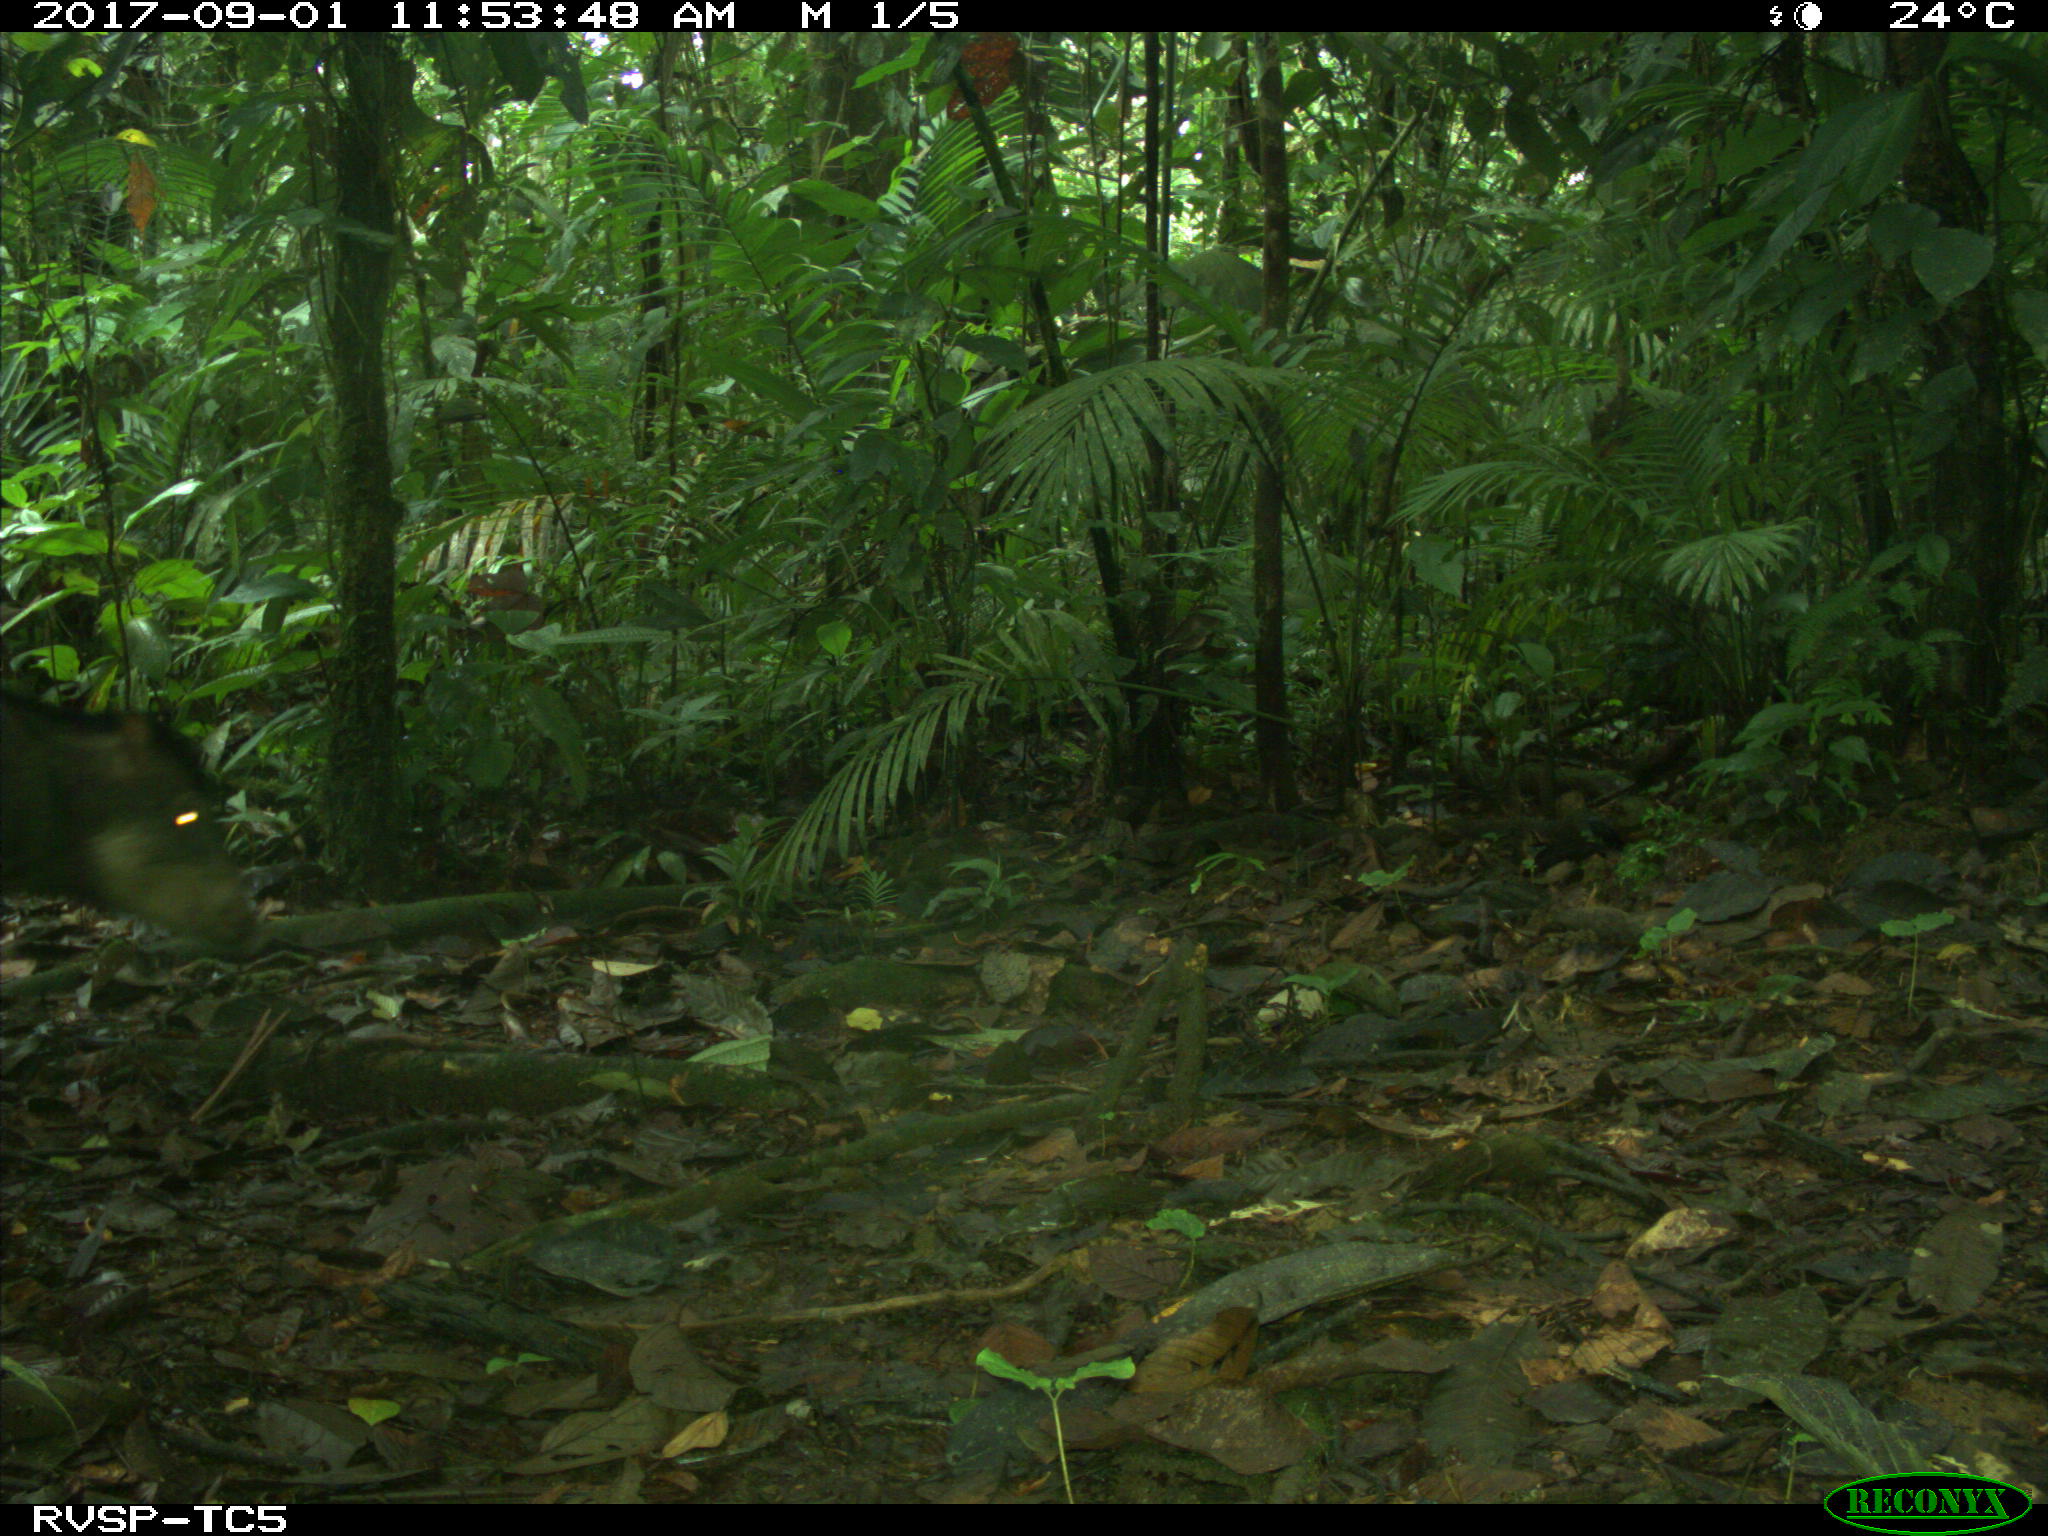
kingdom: Animalia
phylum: Chordata
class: Mammalia
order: Artiodactyla
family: Tayassuidae
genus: Tayassu
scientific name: Tayassu pecari
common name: White-lipped peccary
